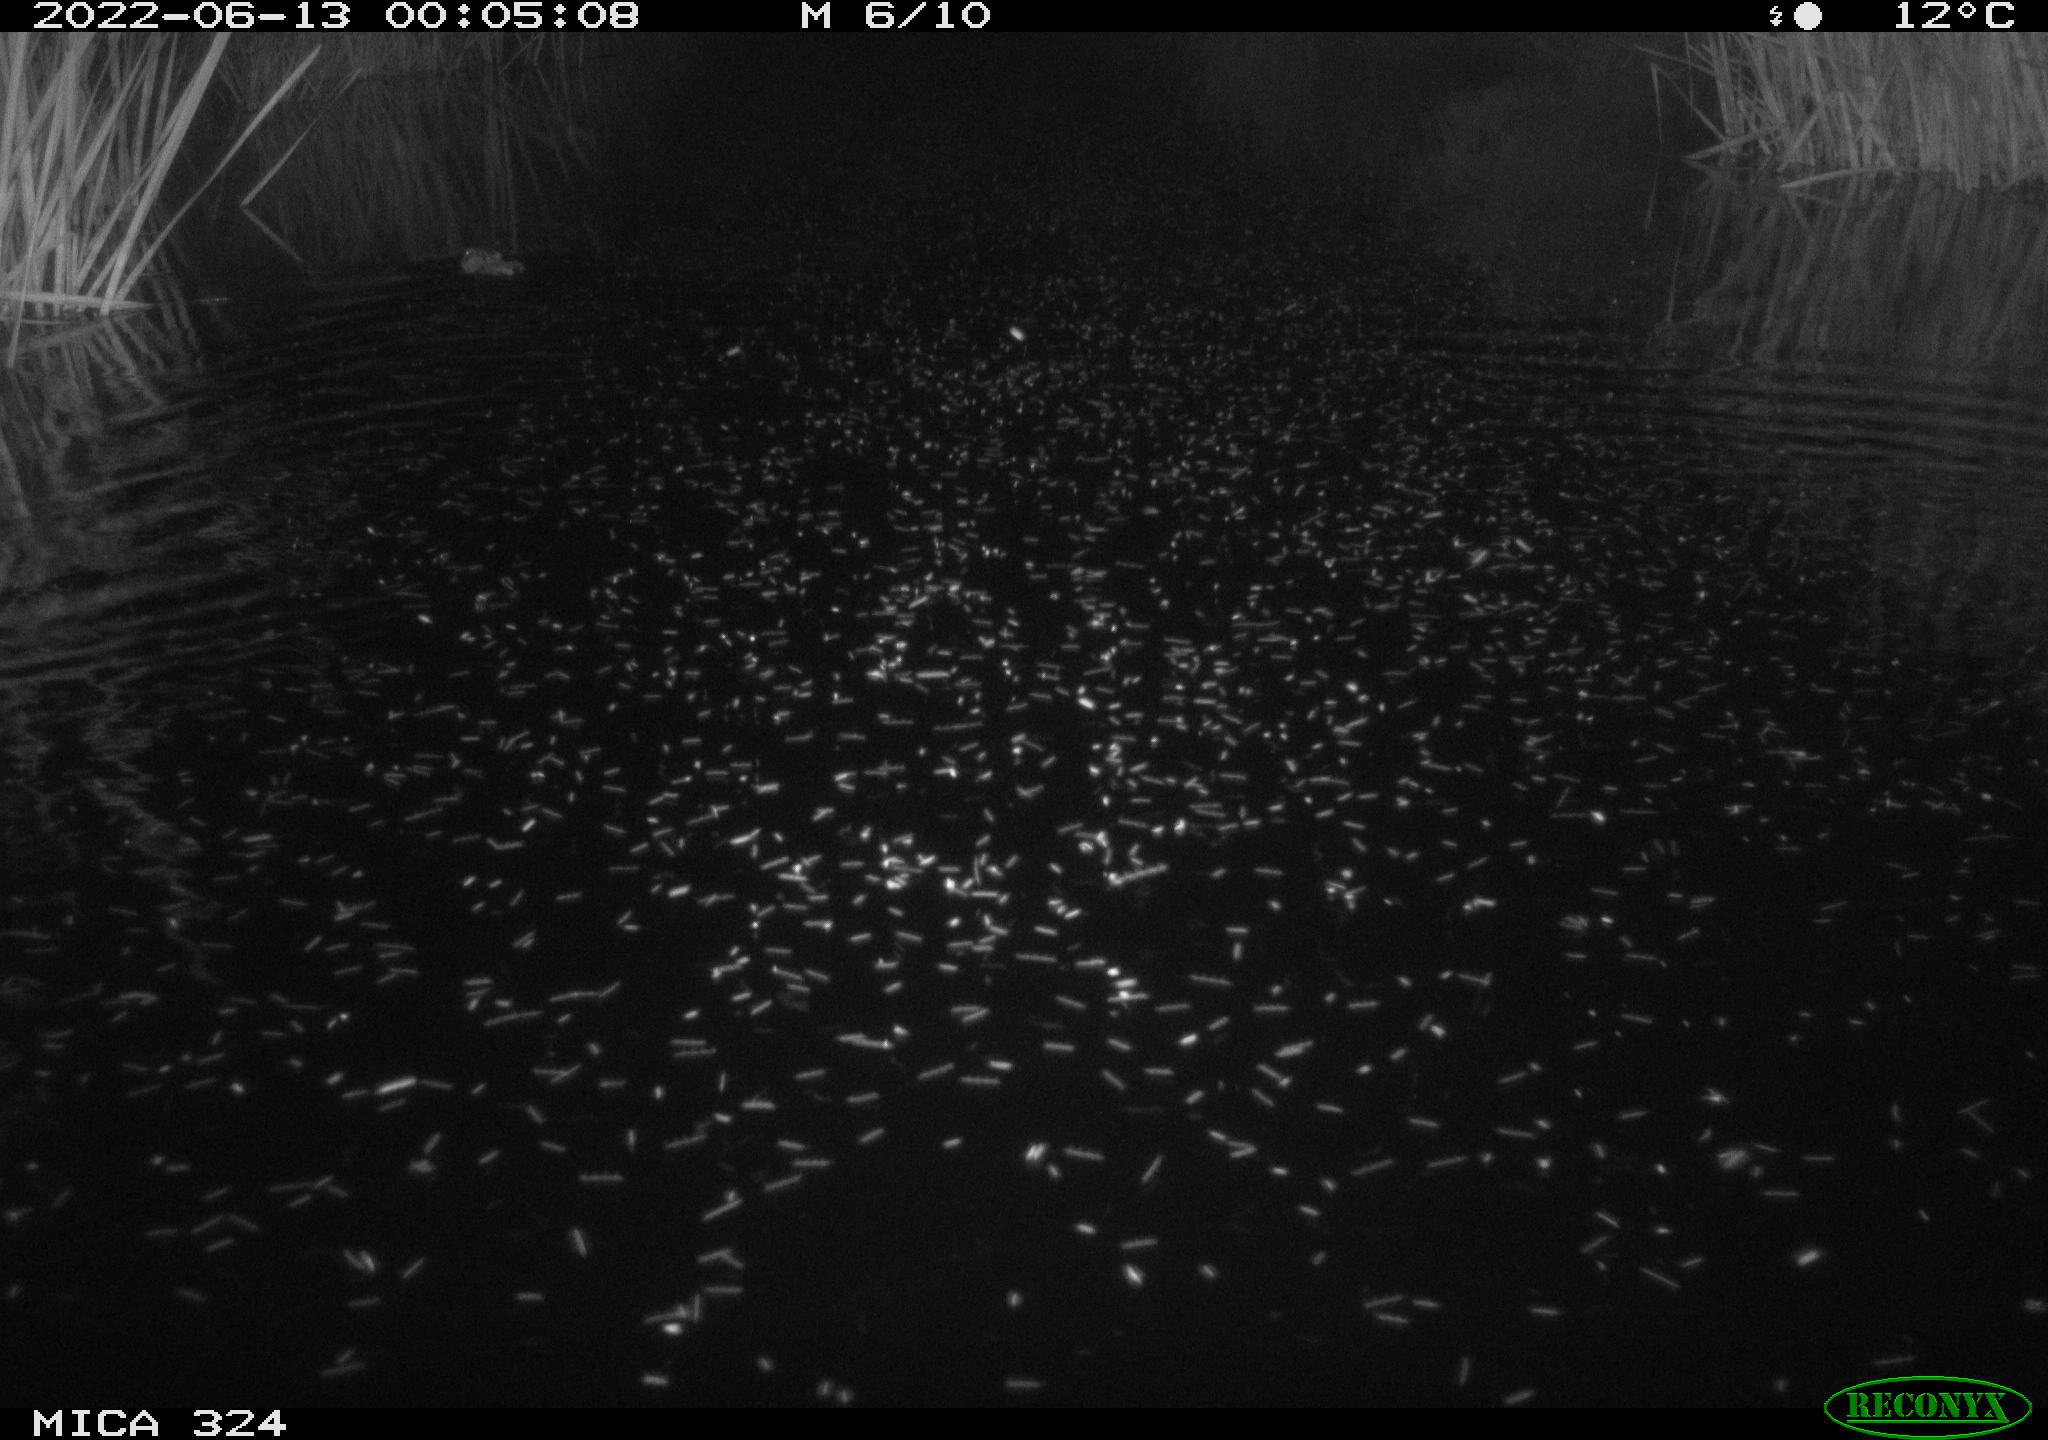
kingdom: Animalia
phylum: Chordata
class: Mammalia
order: Rodentia
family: Cricetidae
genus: Ondatra
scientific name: Ondatra zibethicus
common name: Muskrat
